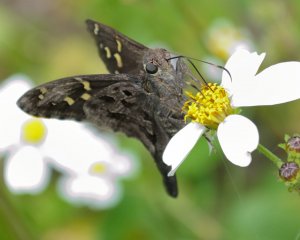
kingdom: Animalia
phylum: Arthropoda
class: Insecta
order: Lepidoptera
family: Hesperiidae
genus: Urbanus
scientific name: Urbanus dorantes
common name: Dorantes Longtail
